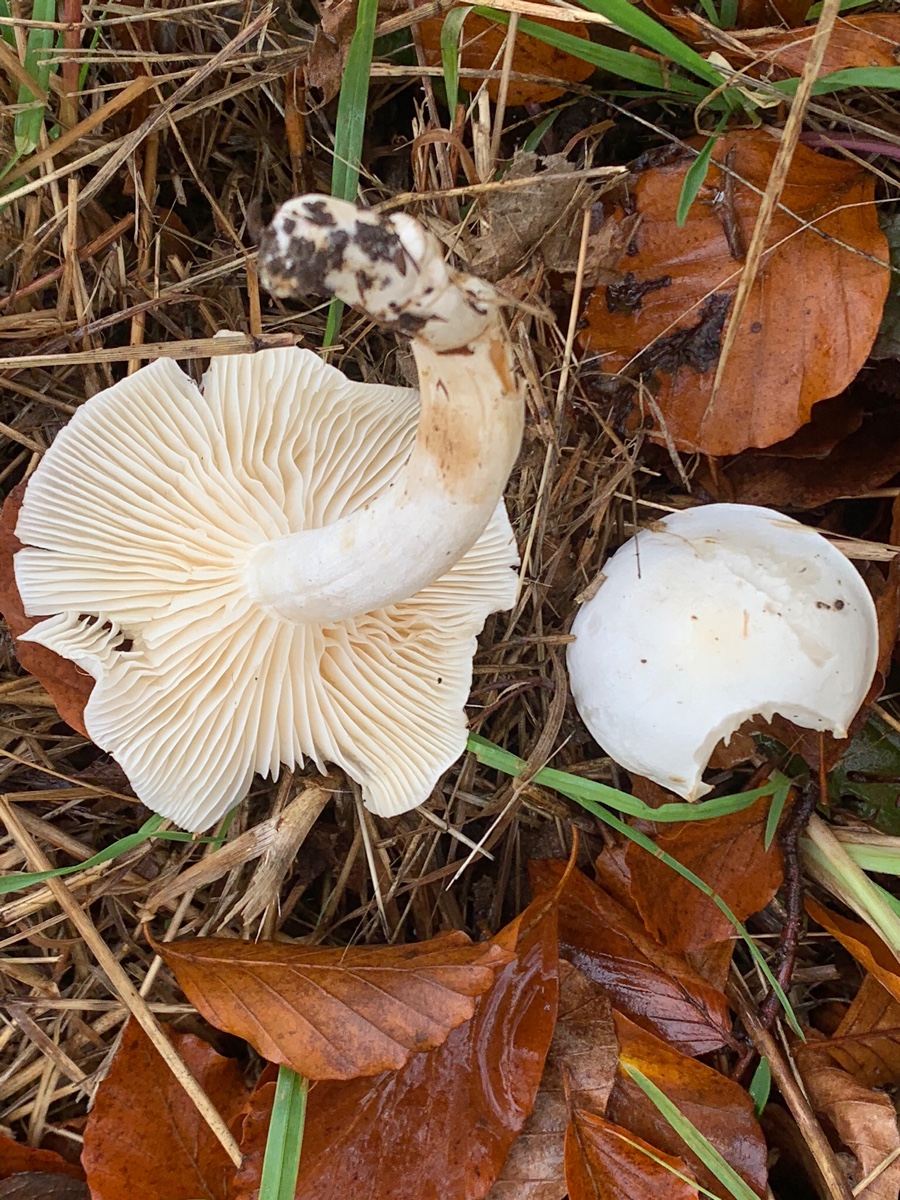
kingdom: Fungi
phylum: Basidiomycota
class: Agaricomycetes
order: Agaricales
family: Hygrophoraceae
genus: Hygrophorus
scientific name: Hygrophorus discoxanthus
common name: ildelugtende sneglehat
